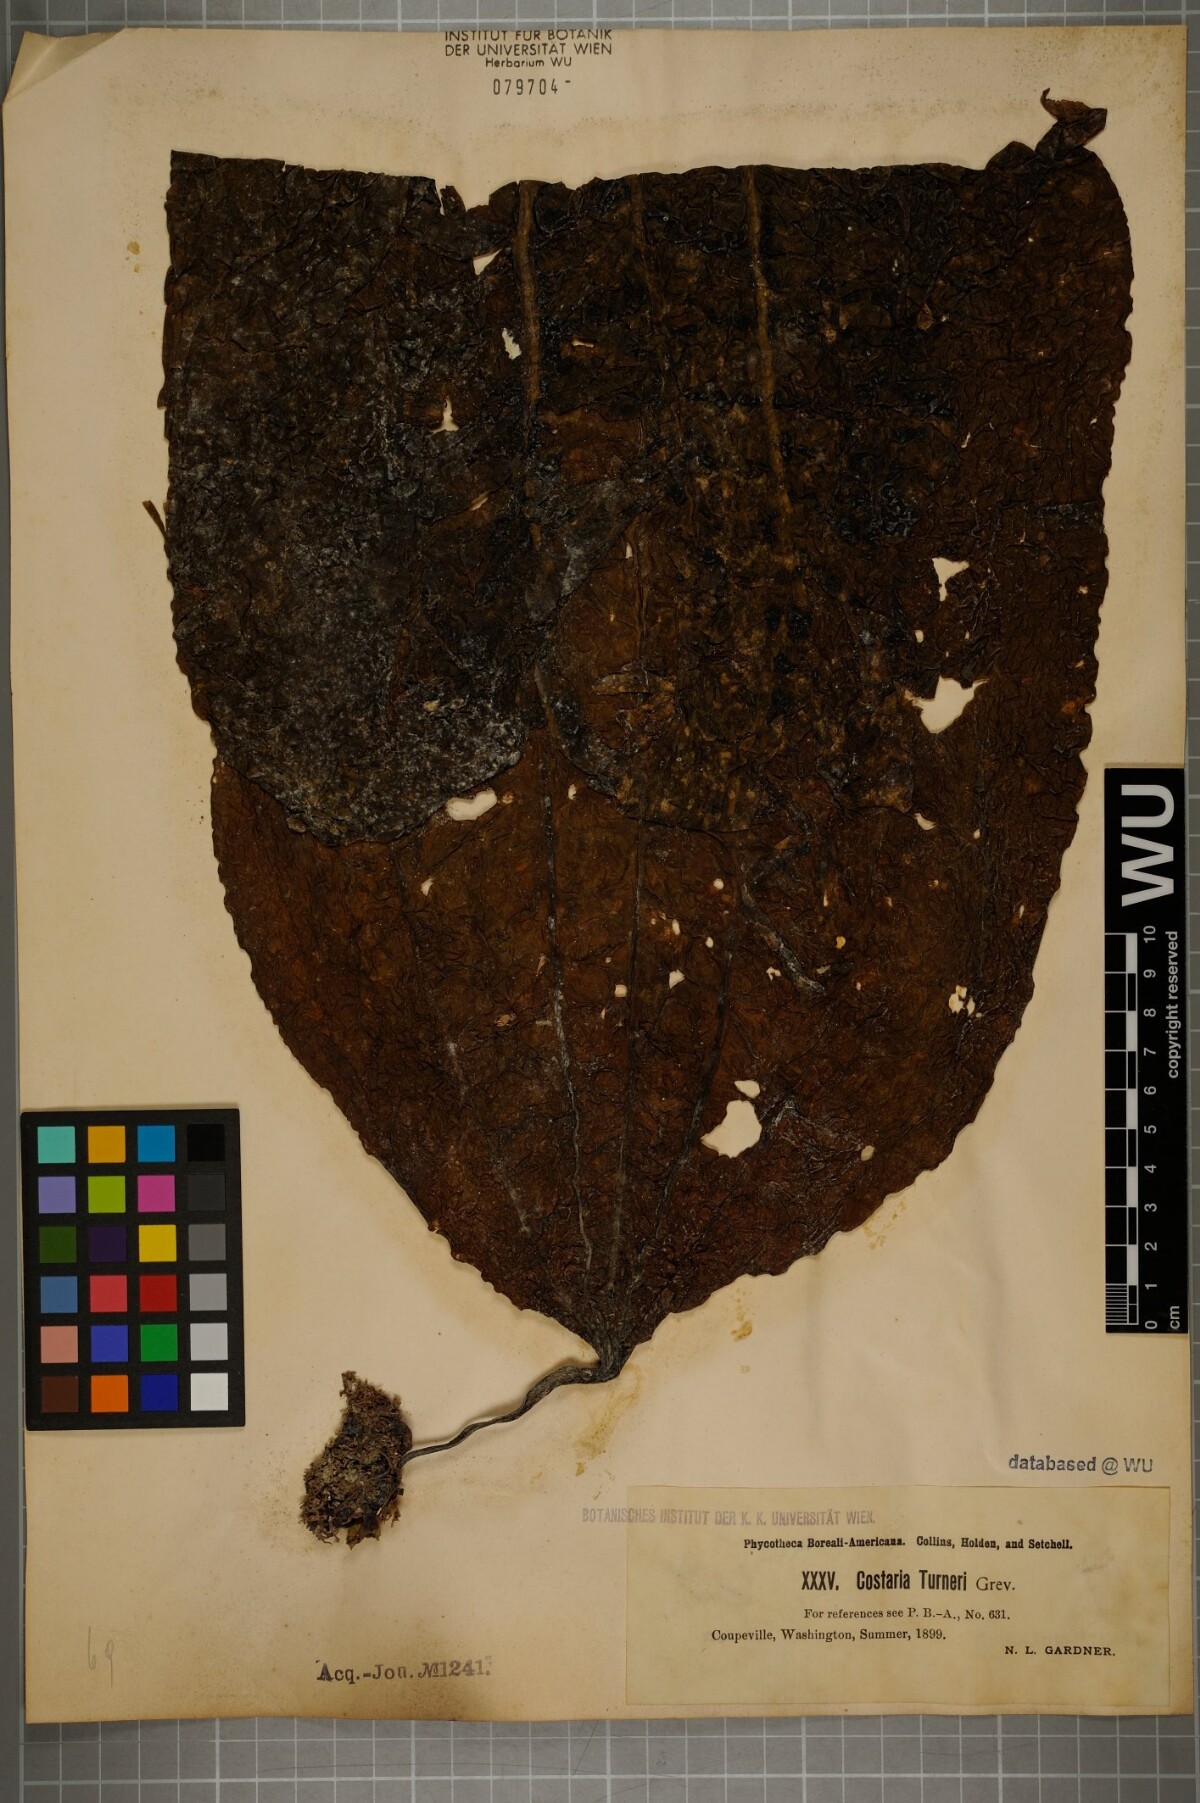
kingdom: Chromista
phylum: Ochrophyta
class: Phaeophyceae
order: Laminariales
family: Costariaceae
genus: Costaria
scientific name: Costaria turneri
